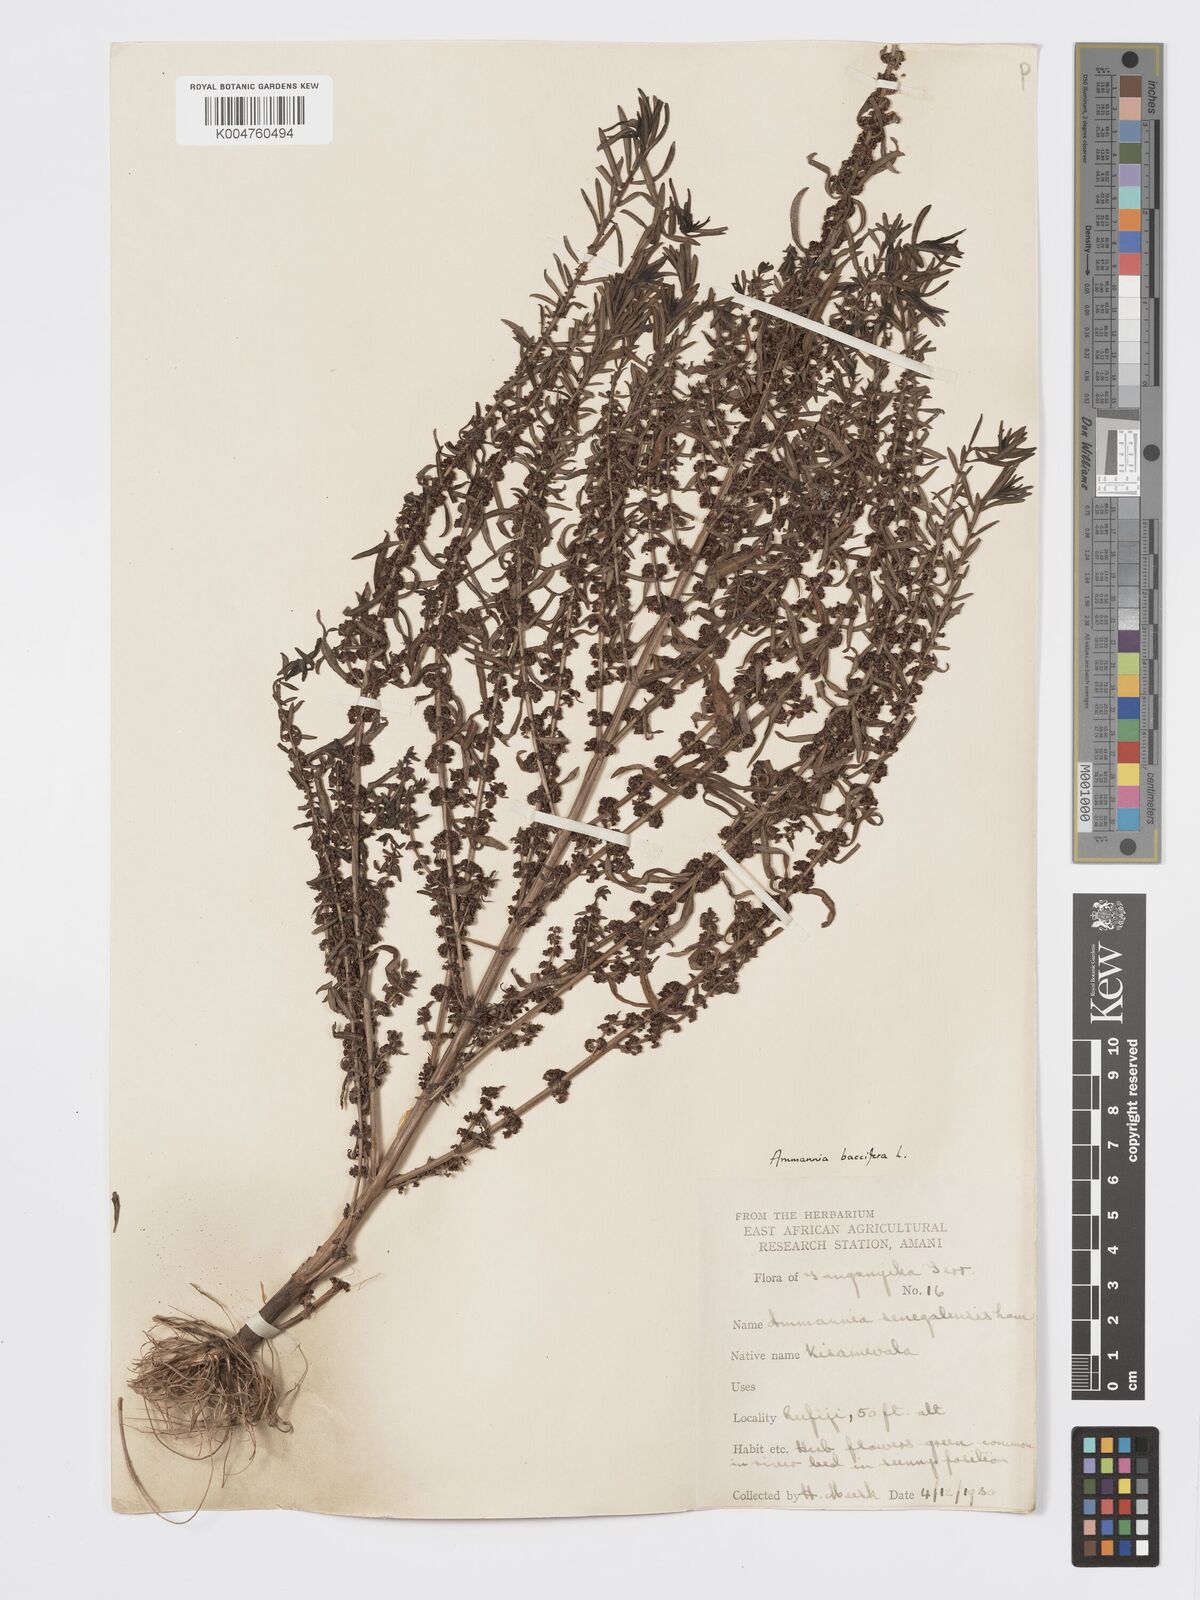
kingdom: Plantae
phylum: Tracheophyta
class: Magnoliopsida
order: Myrtales
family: Lythraceae
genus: Ammannia
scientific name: Ammannia
